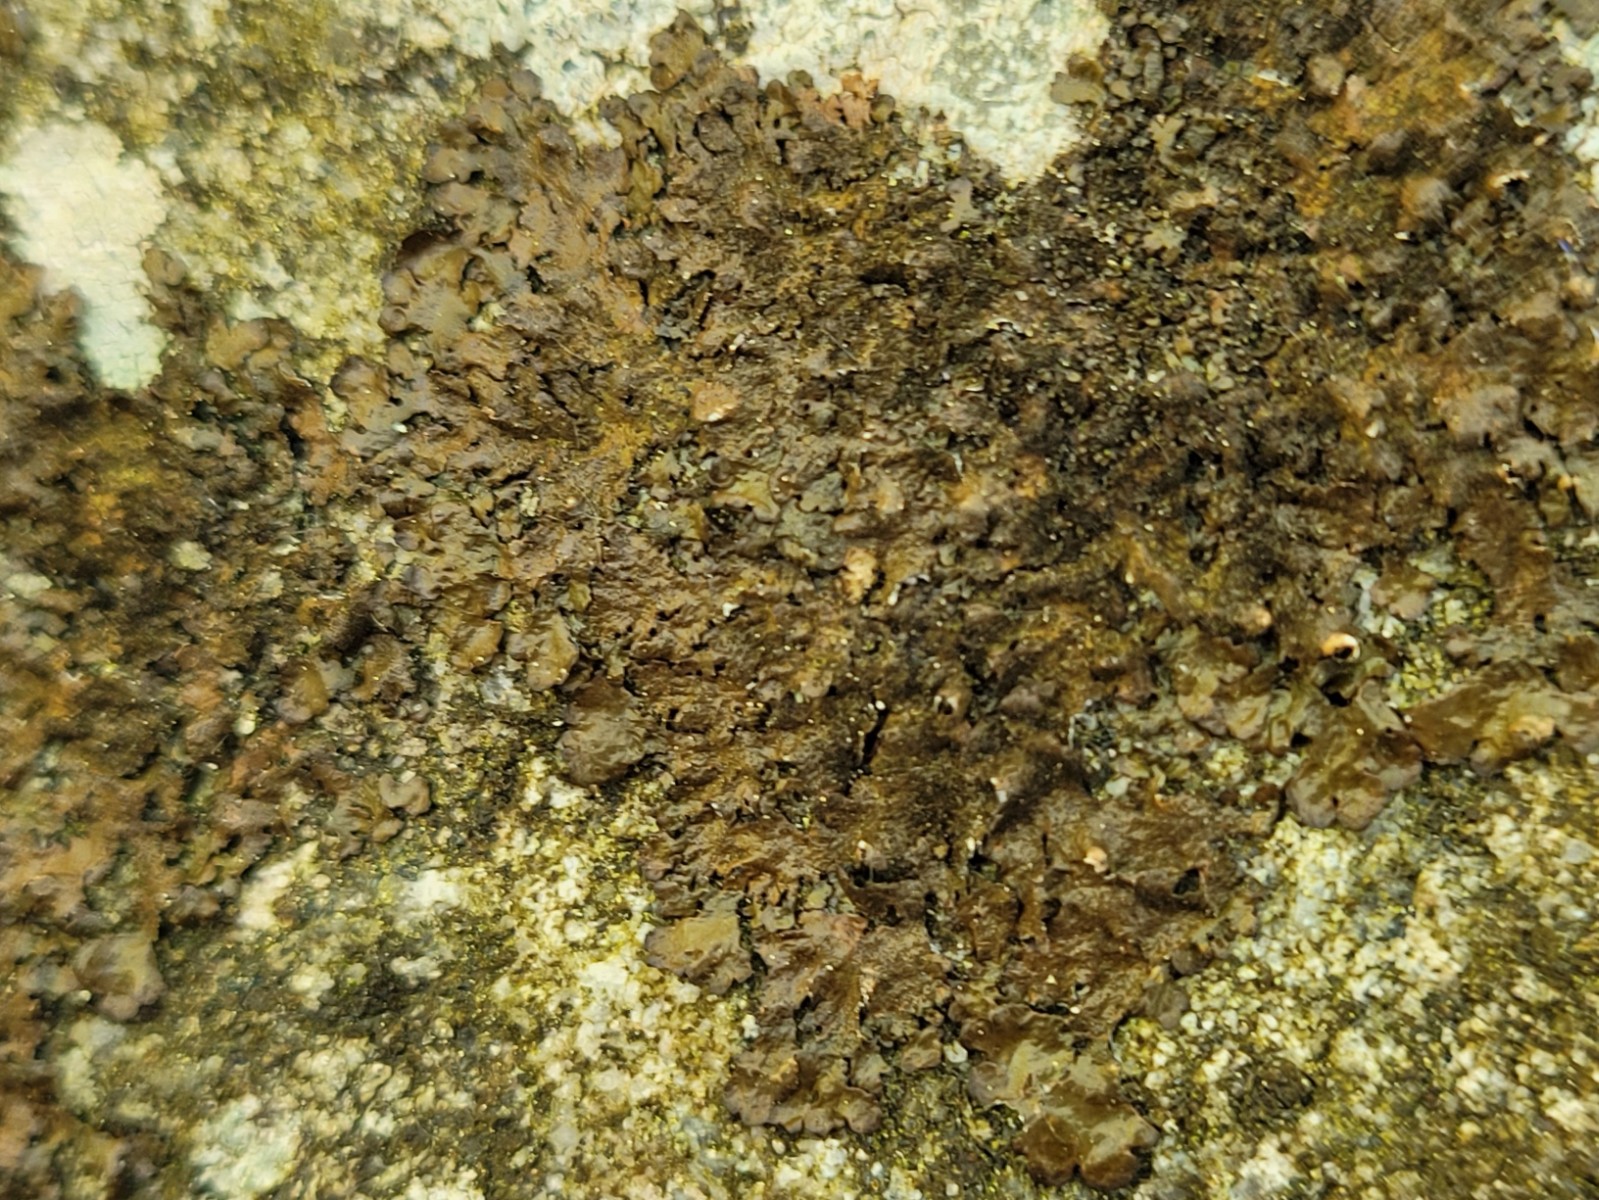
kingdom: Fungi
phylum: Ascomycota
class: Lecanoromycetes
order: Lecanorales
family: Parmeliaceae
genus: Melanelixia
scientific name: Melanelixia fuliginosa
